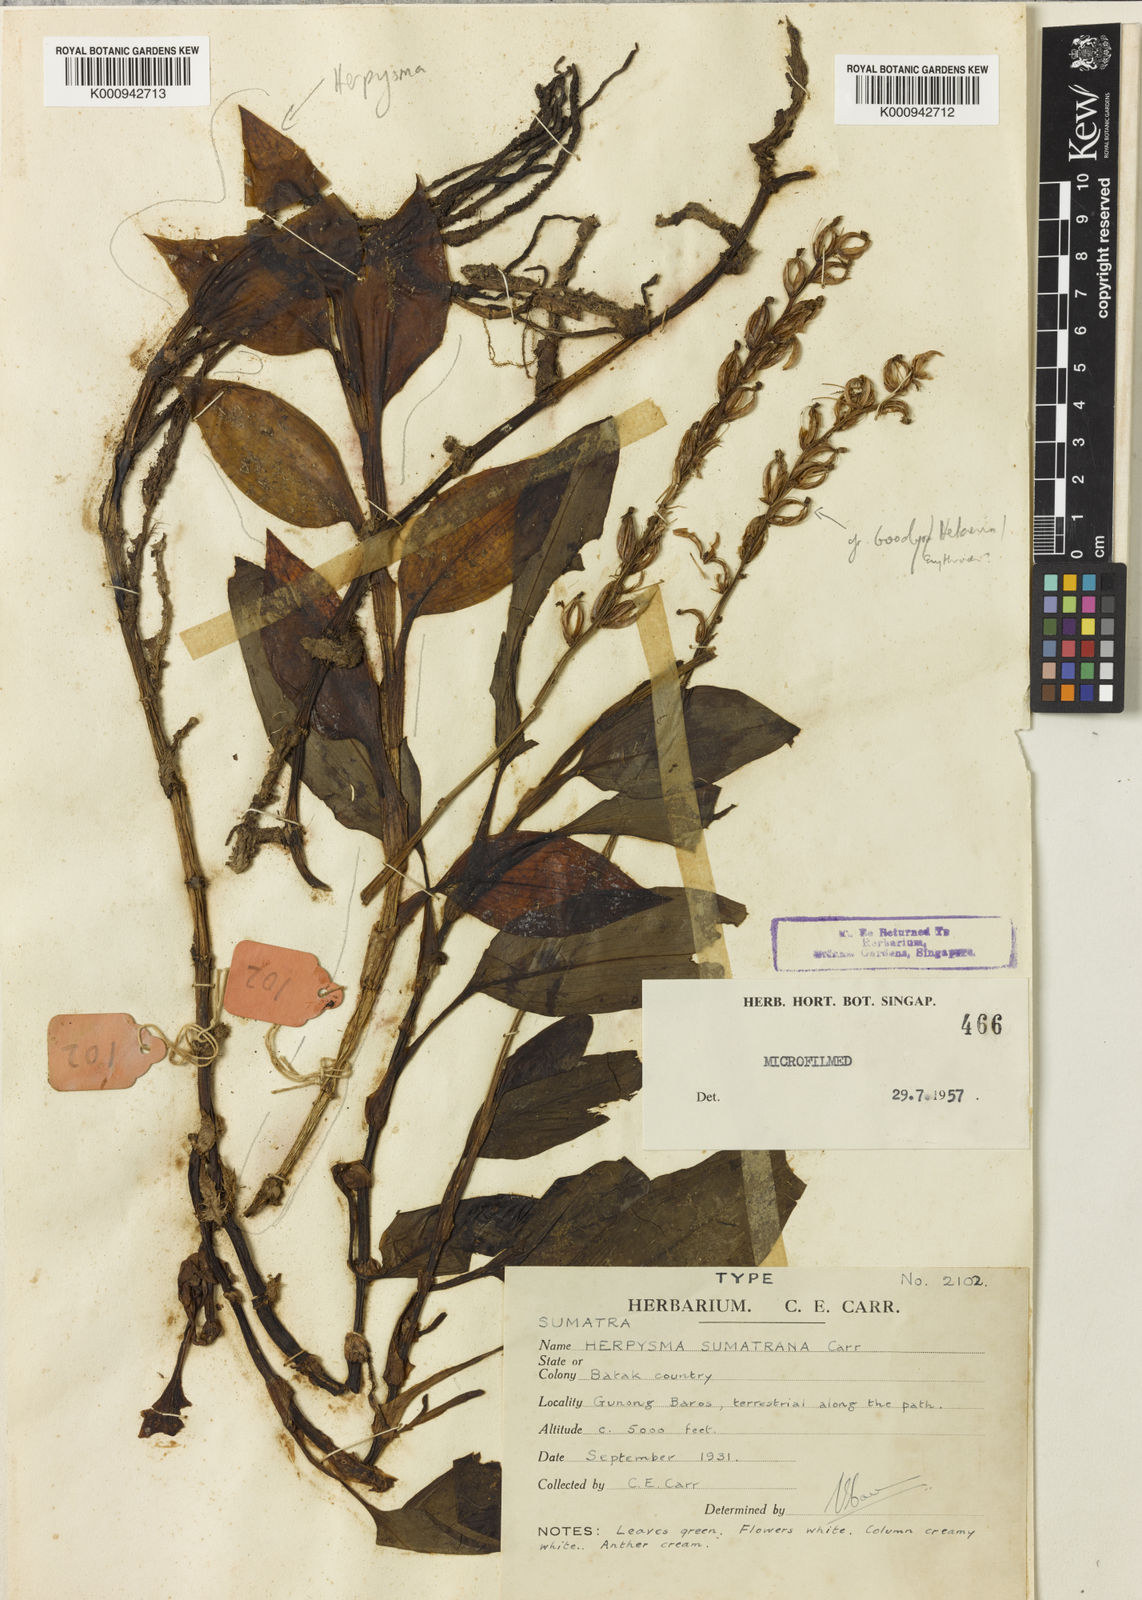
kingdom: Plantae
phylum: Tracheophyta
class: Liliopsida
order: Asparagales
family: Orchidaceae
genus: Herpysma
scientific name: Herpysma longicaulis
